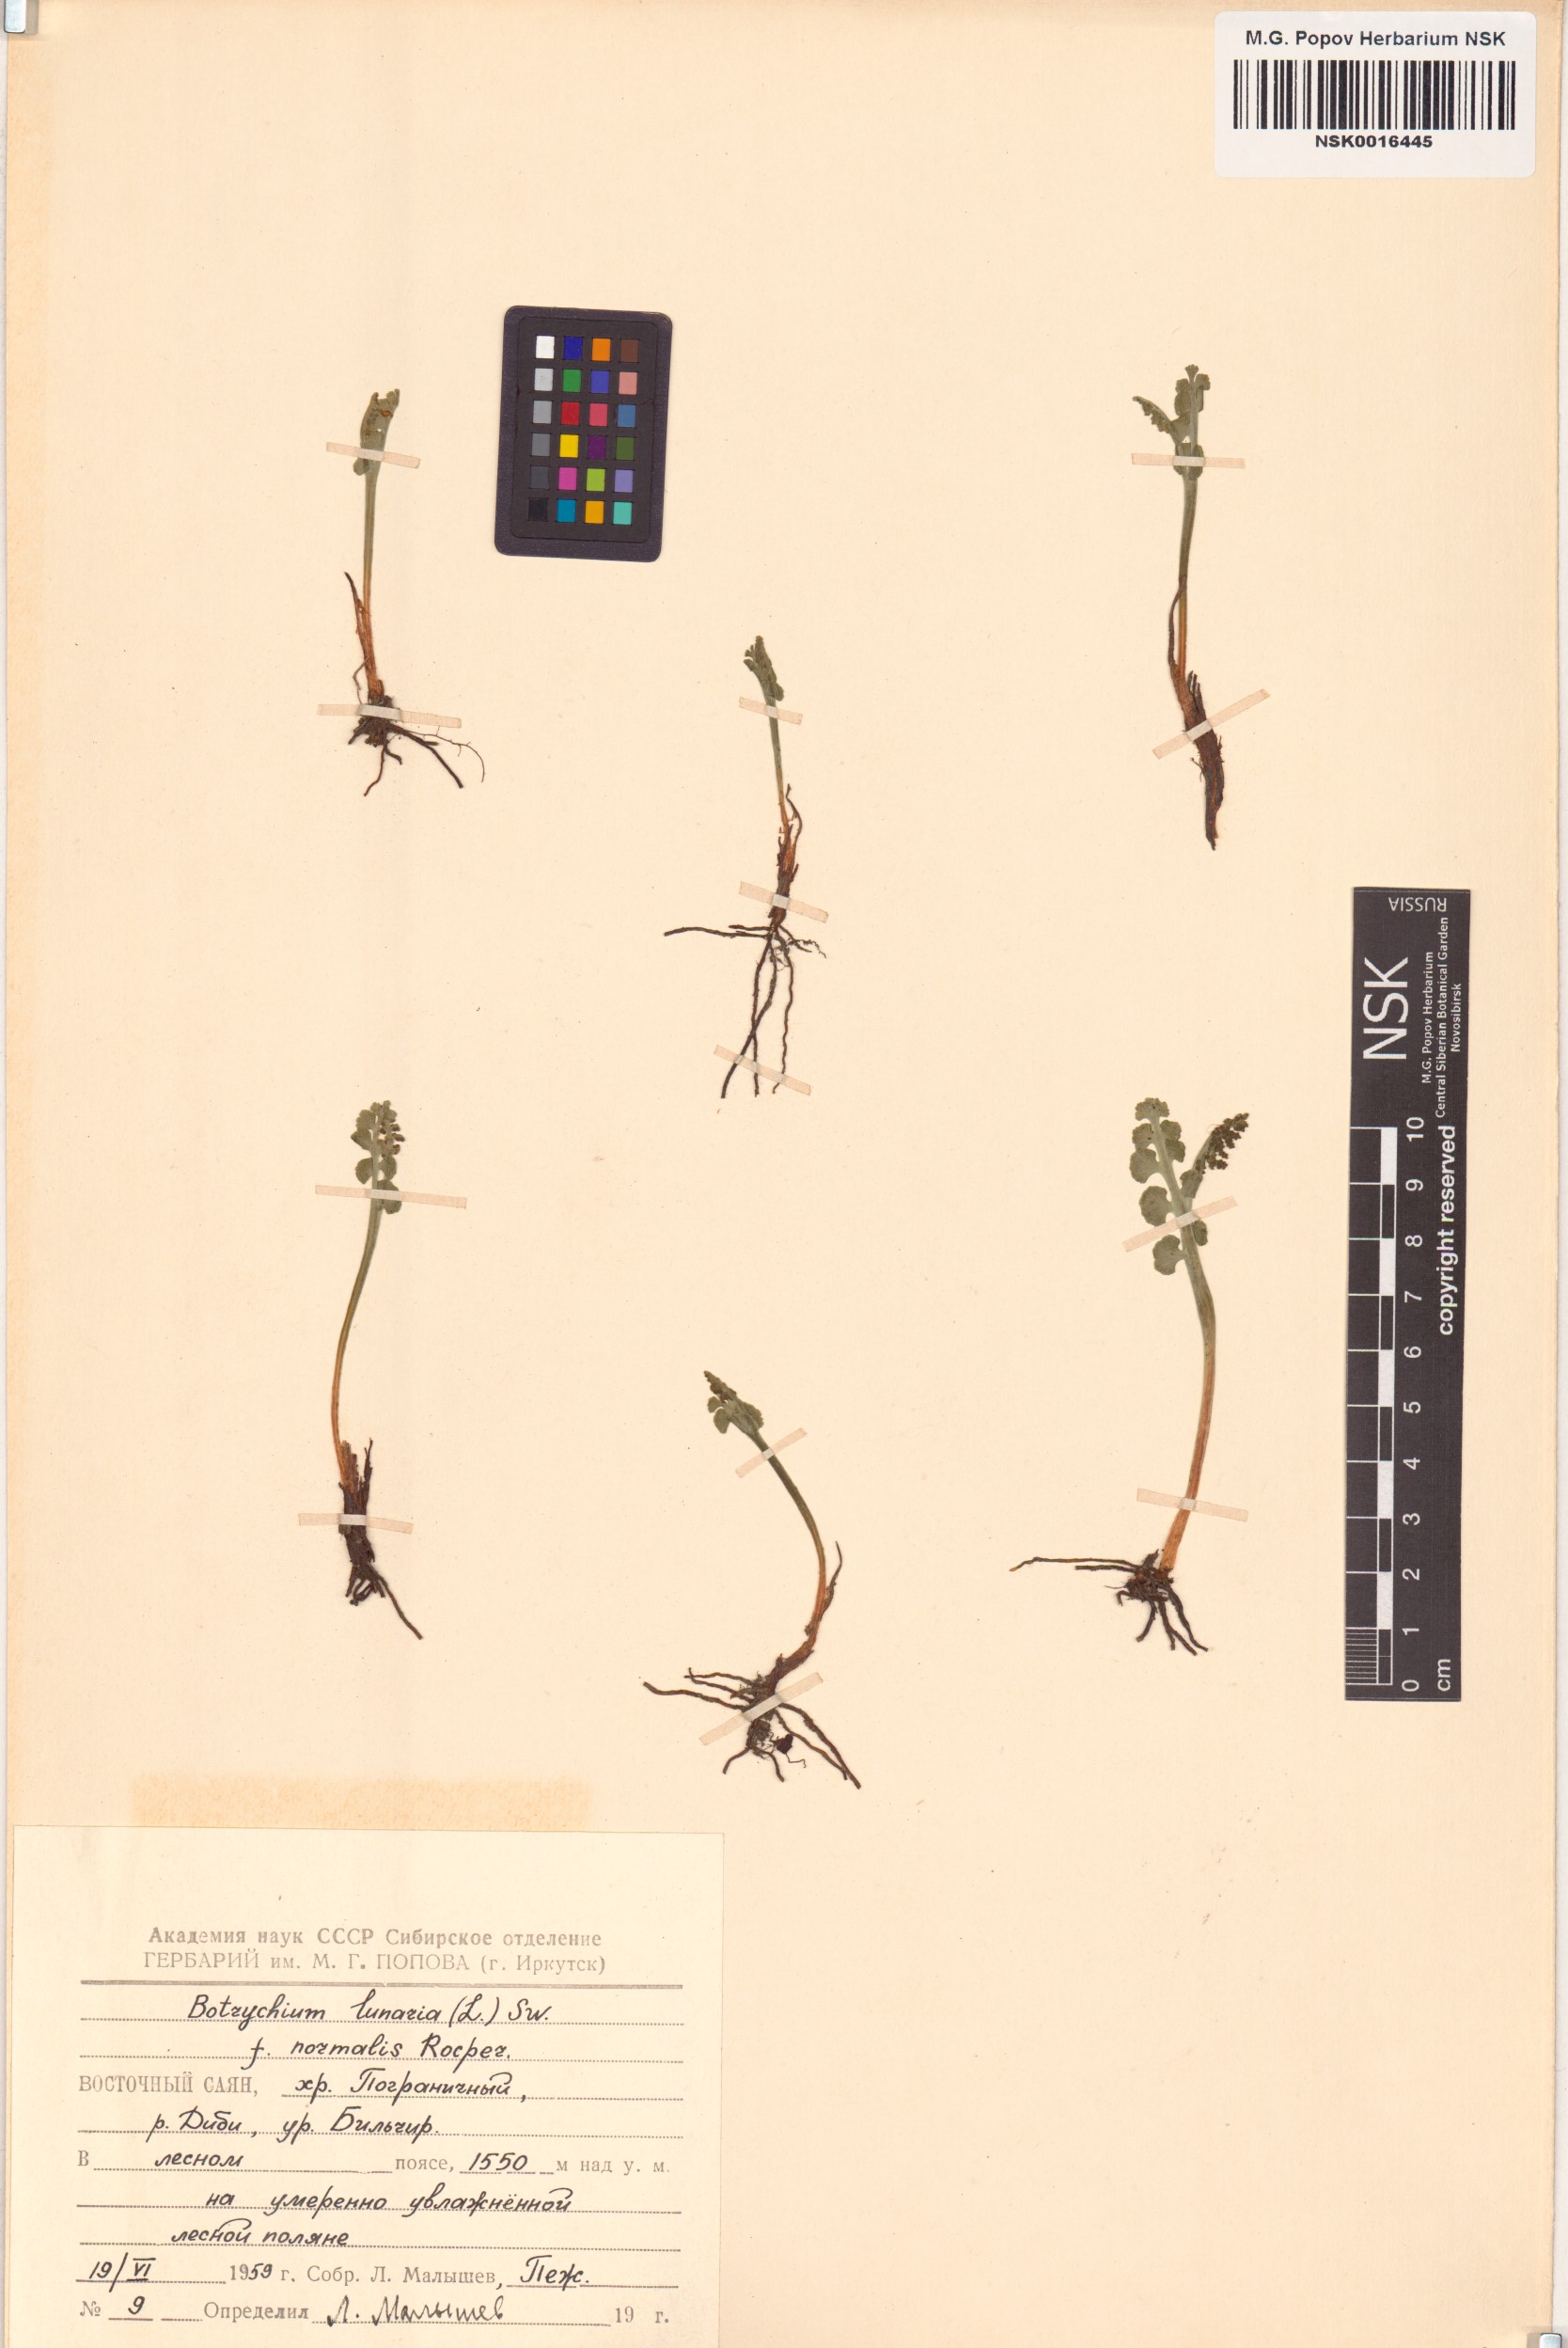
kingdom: Plantae
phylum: Tracheophyta
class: Polypodiopsida
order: Ophioglossales
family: Ophioglossaceae
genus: Botrychium
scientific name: Botrychium lunaria
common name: Moonwort
